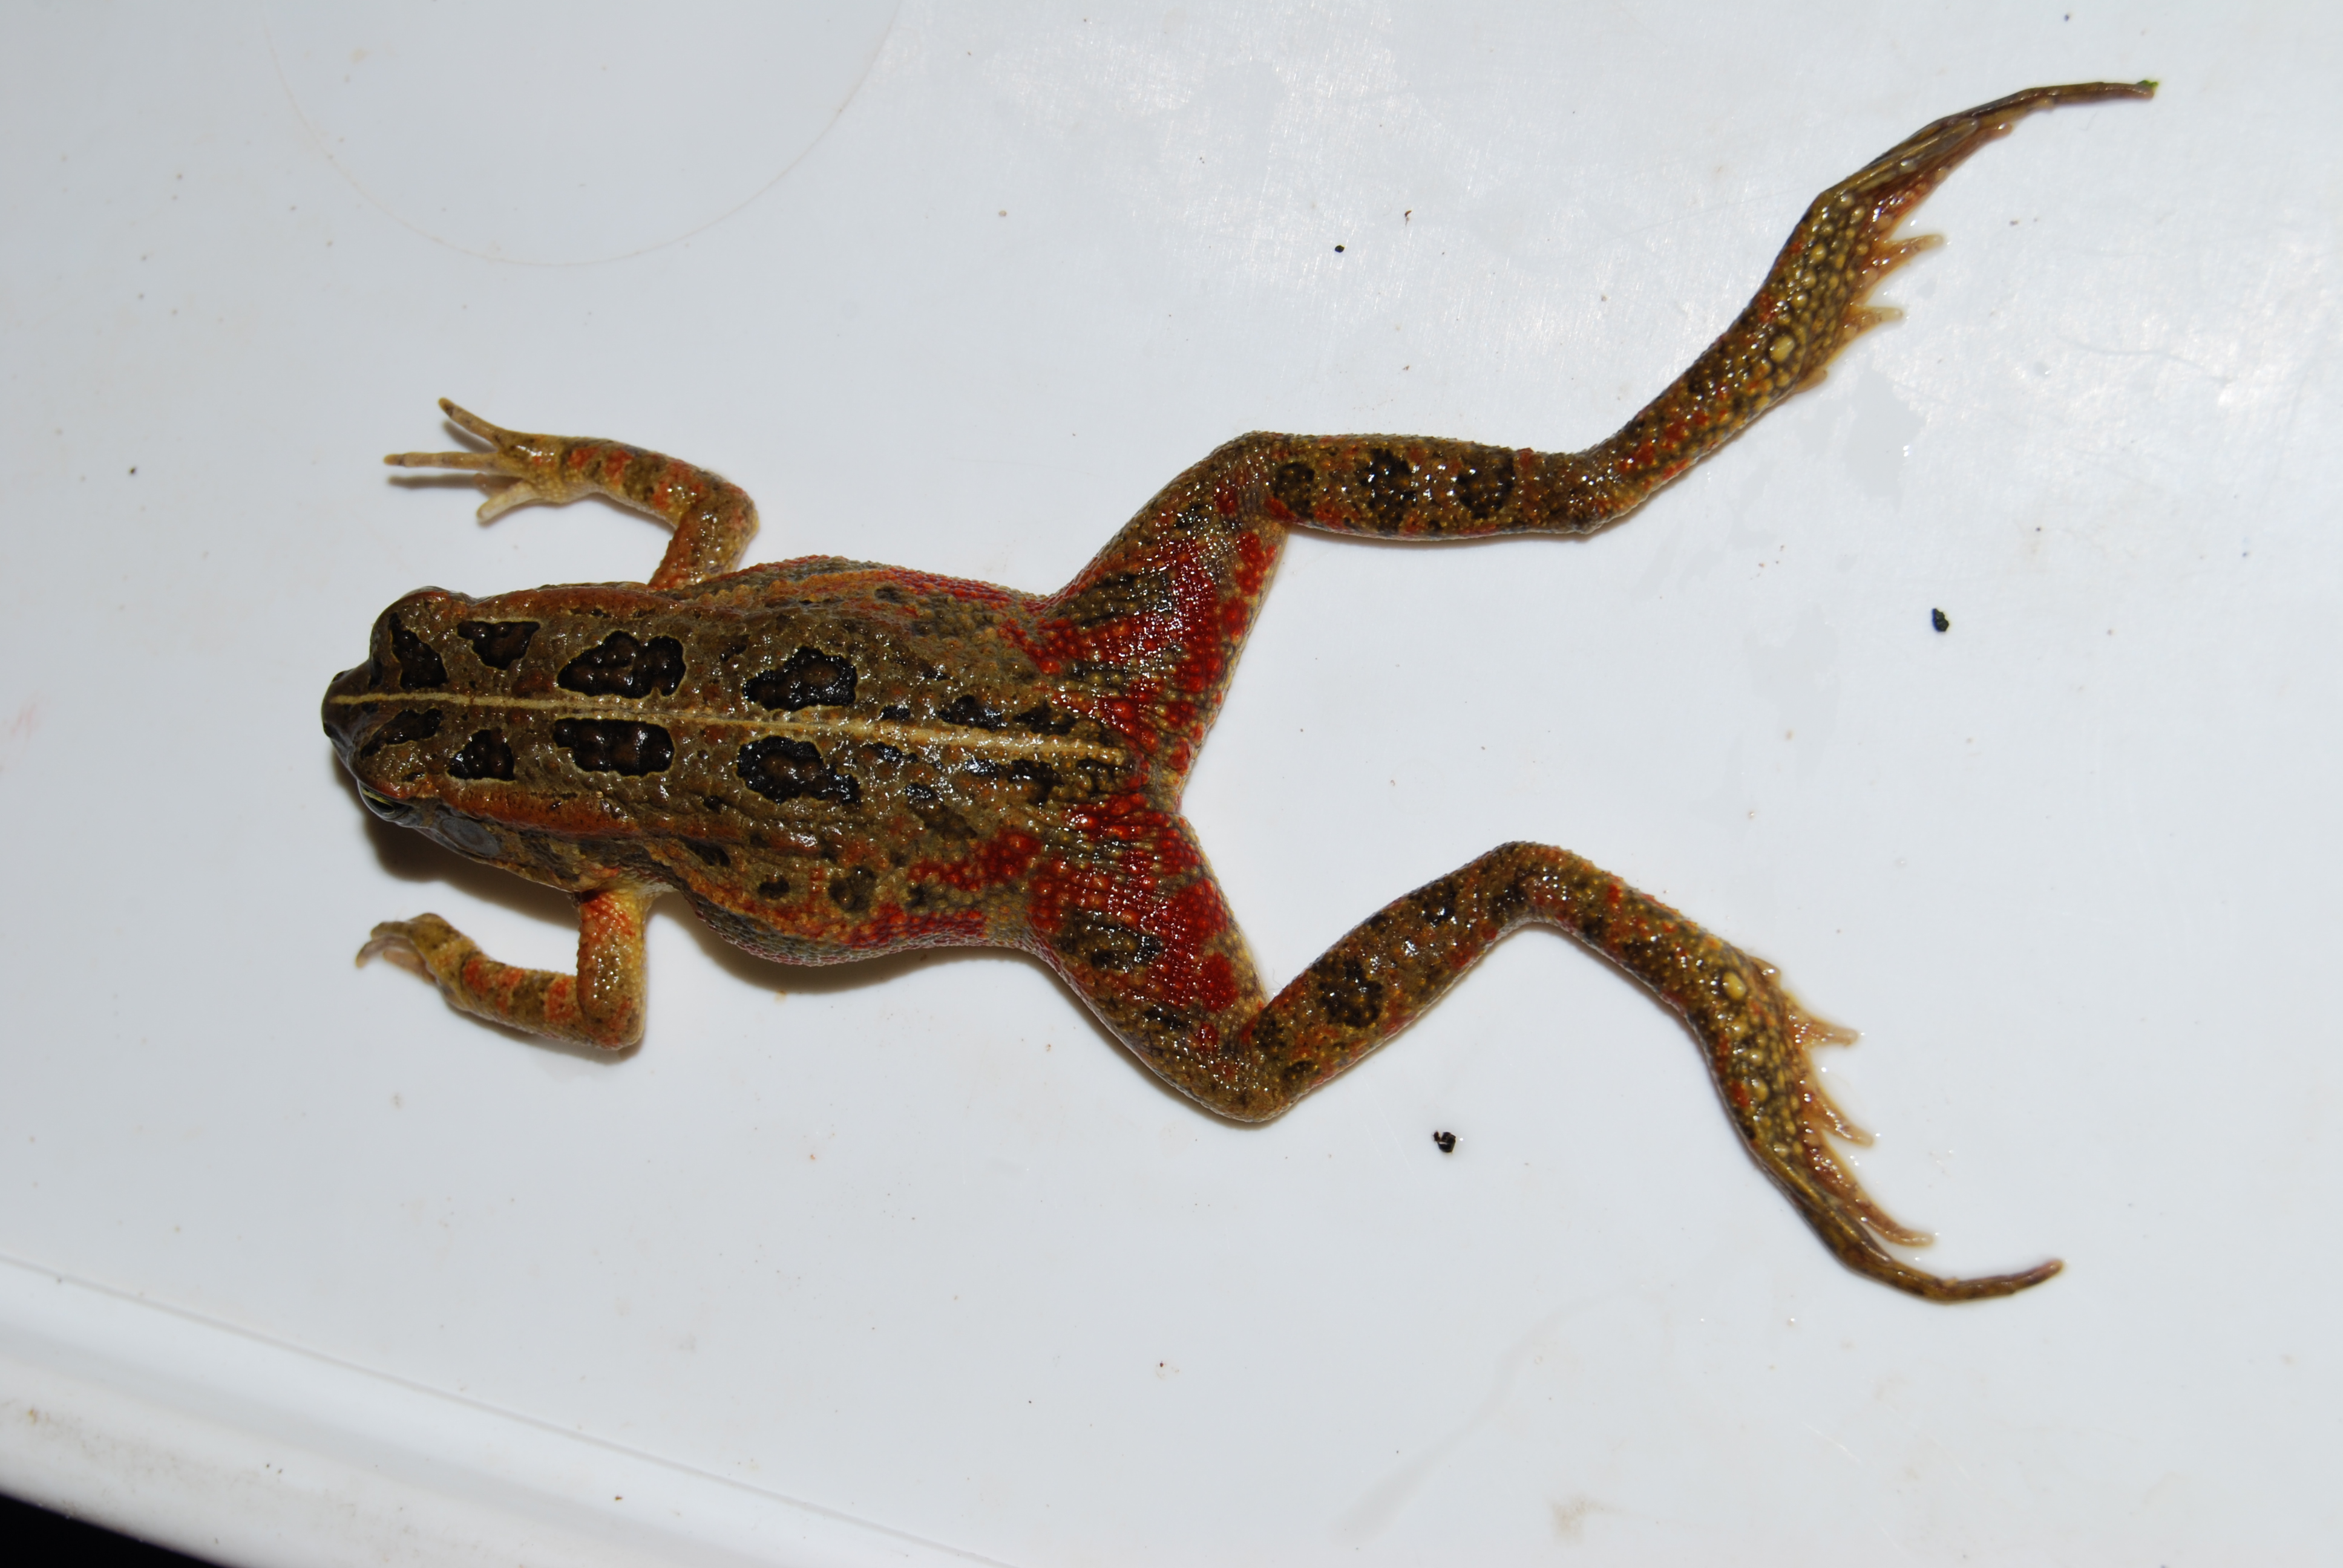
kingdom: Animalia
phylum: Chordata
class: Amphibia
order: Anura
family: Bufonidae
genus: Sclerophrys
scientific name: Sclerophrys lemairii
